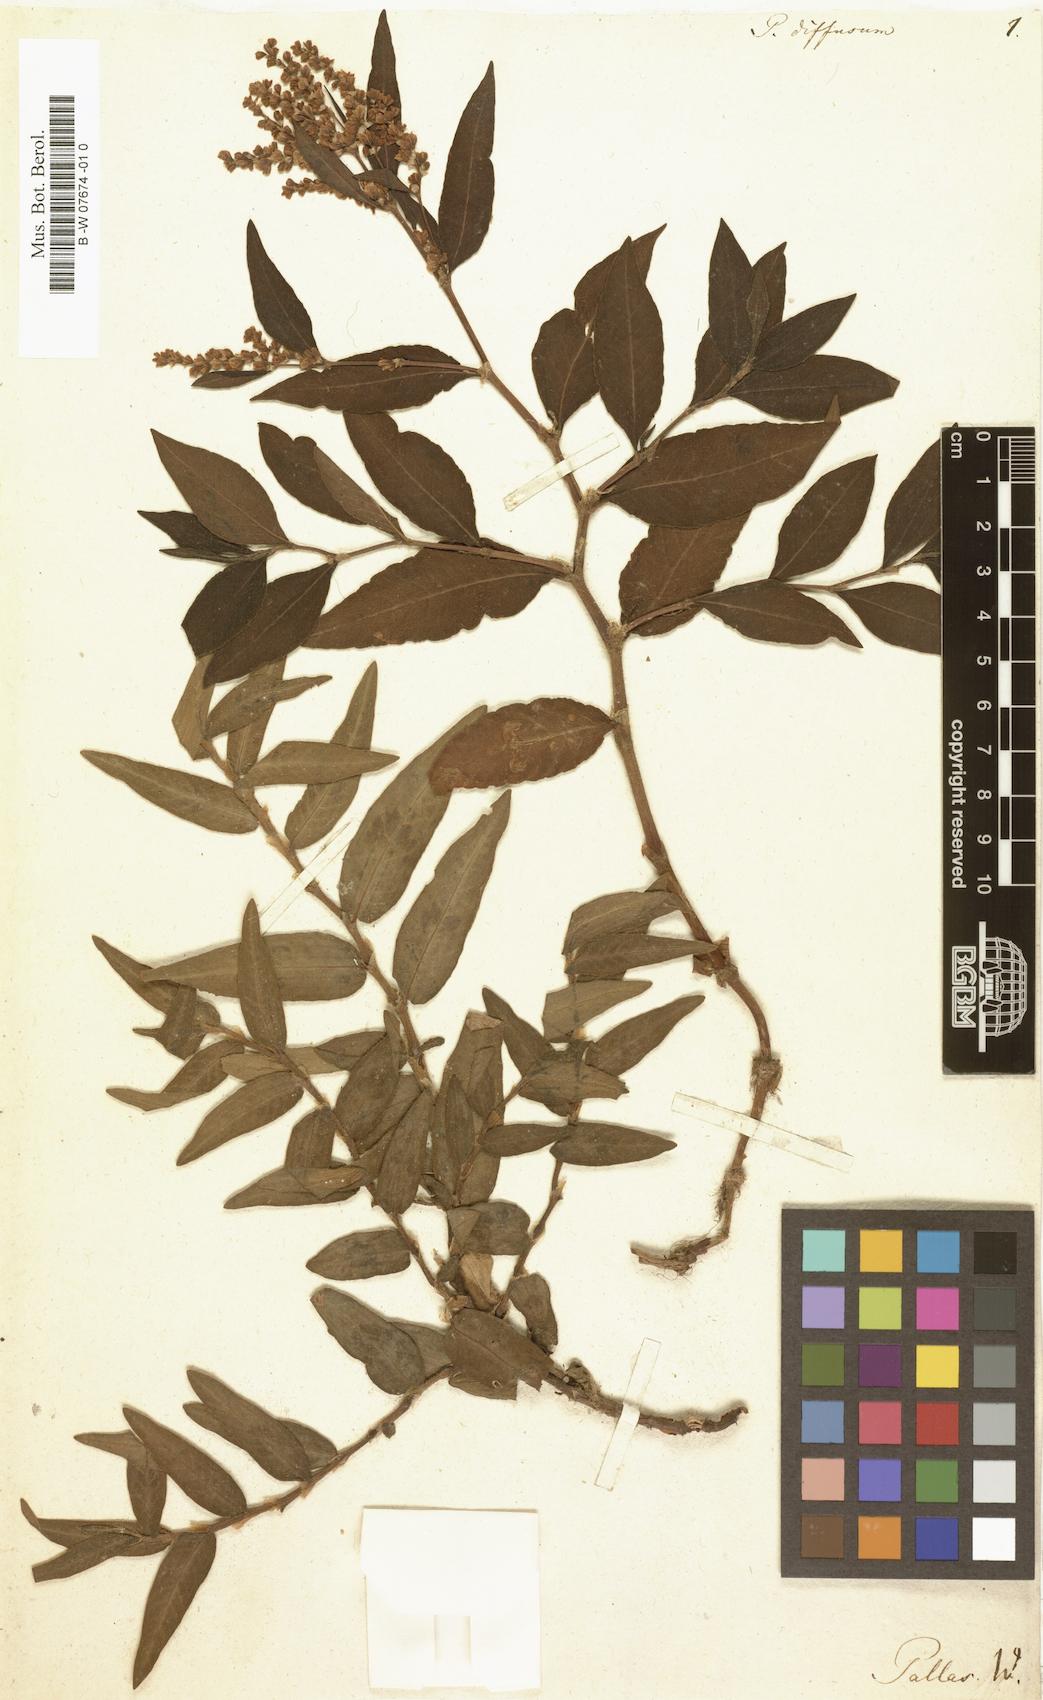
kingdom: Plantae
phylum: Tracheophyta
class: Magnoliopsida
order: Caryophyllales
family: Polygonaceae
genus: Koenigia
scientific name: Koenigia alpina
